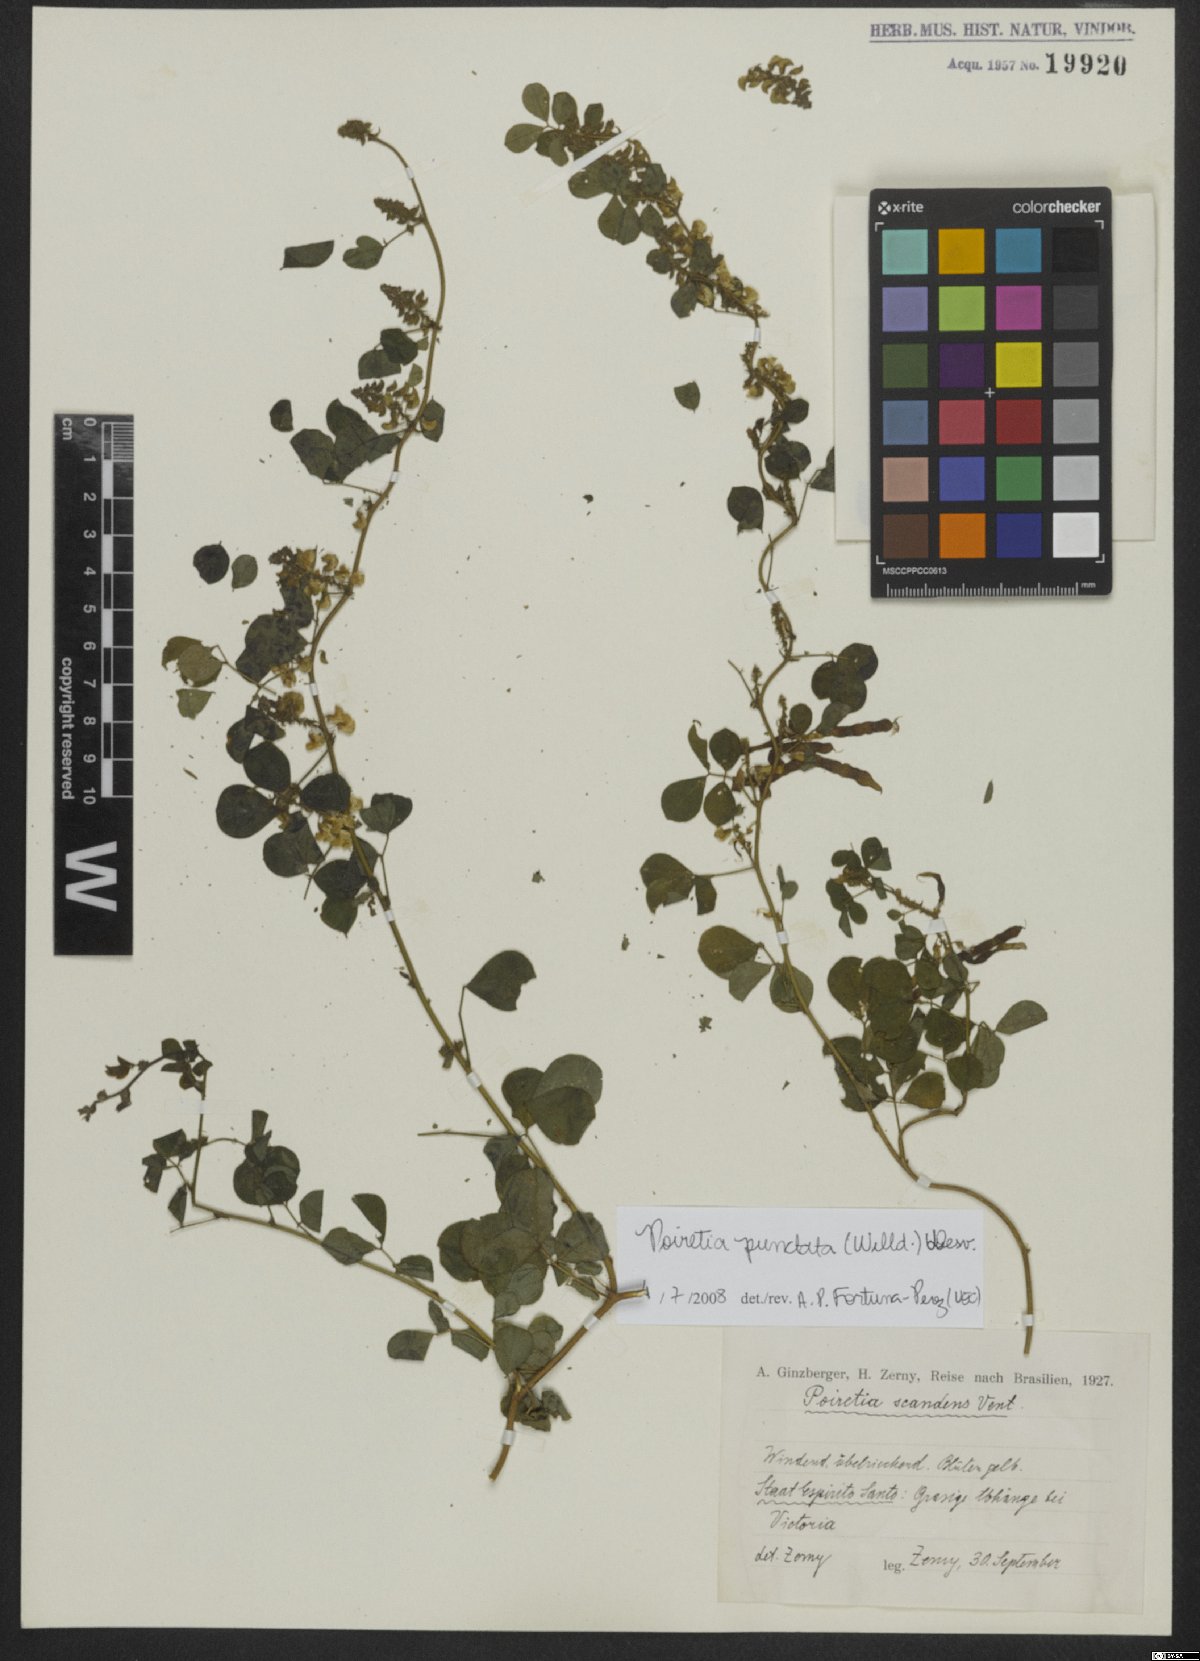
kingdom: Plantae
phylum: Tracheophyta
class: Magnoliopsida
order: Fabales
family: Fabaceae
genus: Poiretia
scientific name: Poiretia punctata
